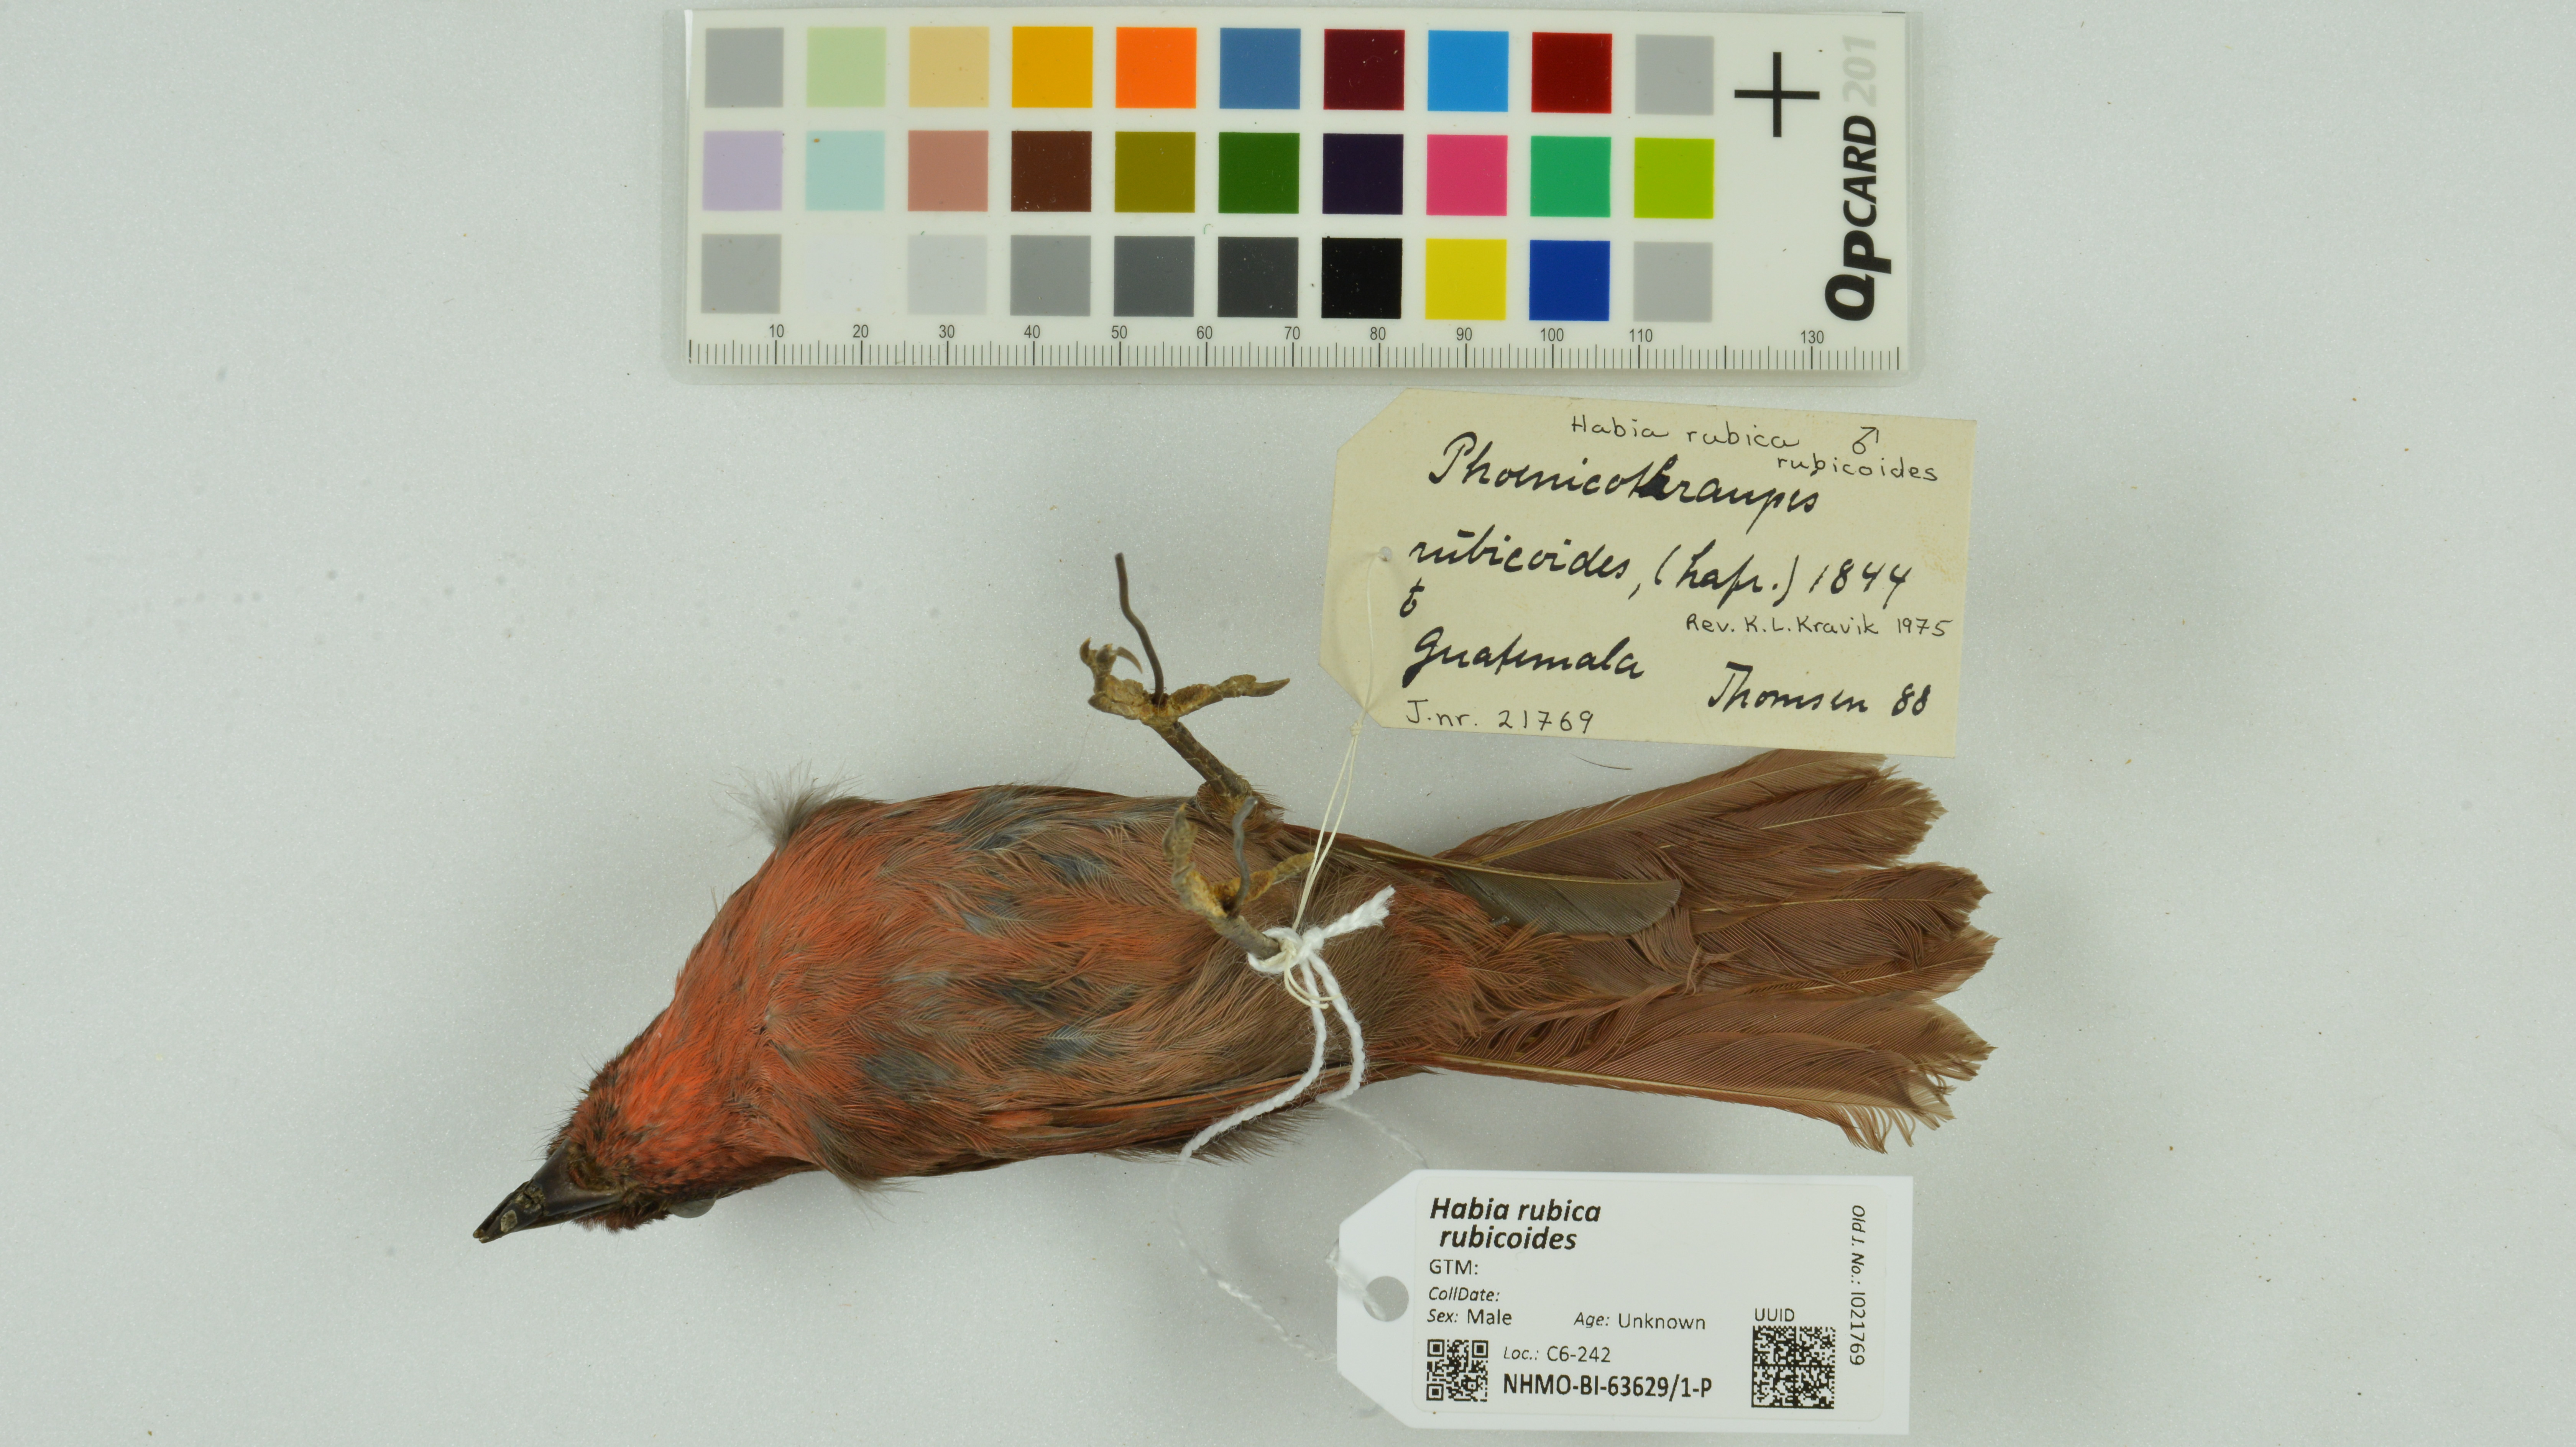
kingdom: Animalia
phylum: Chordata
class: Aves
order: Passeriformes
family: Cardinalidae
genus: Habia
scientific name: Habia rubica
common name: Red-crowned ant-tanager
